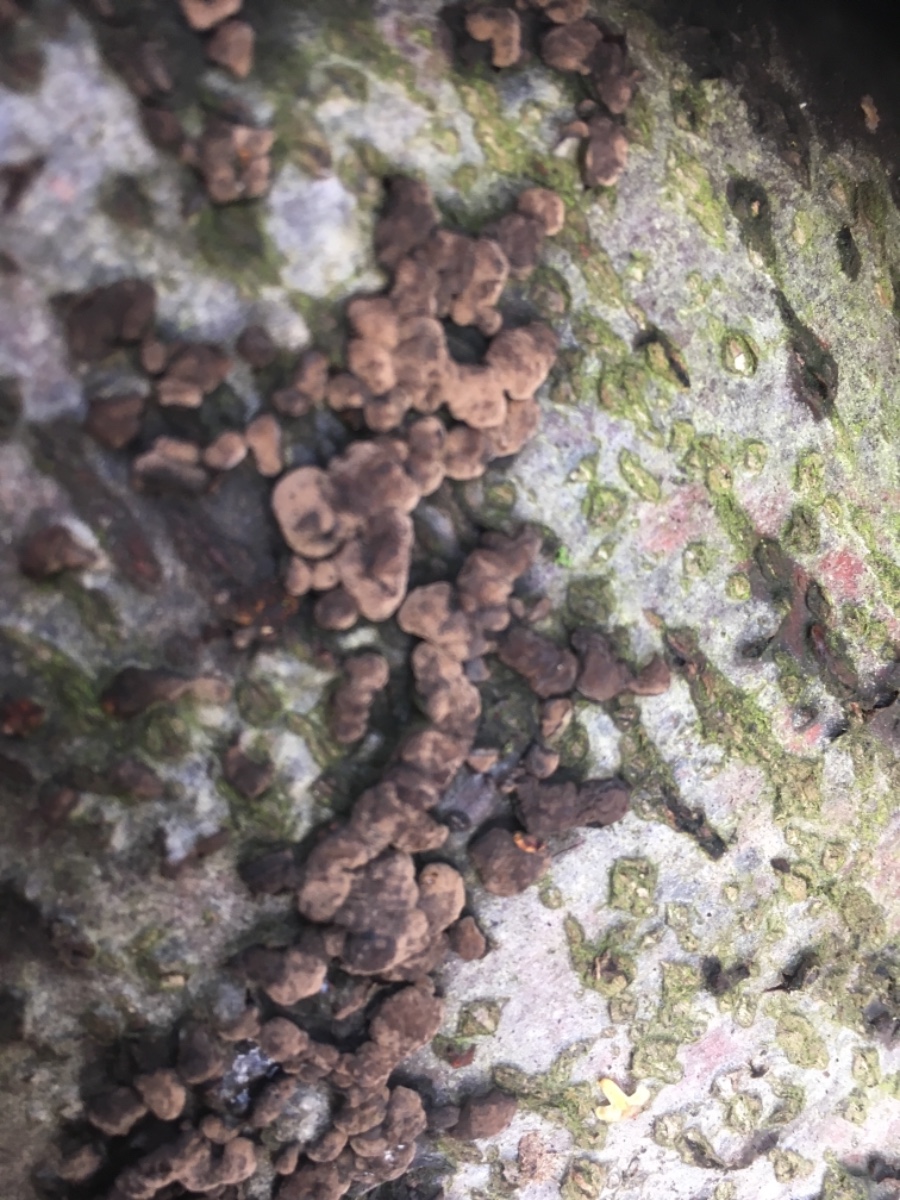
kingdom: Fungi
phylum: Ascomycota
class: Sordariomycetes
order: Xylariales
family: Xylariaceae
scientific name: Xylariaceae
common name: stødsvampfamilien
